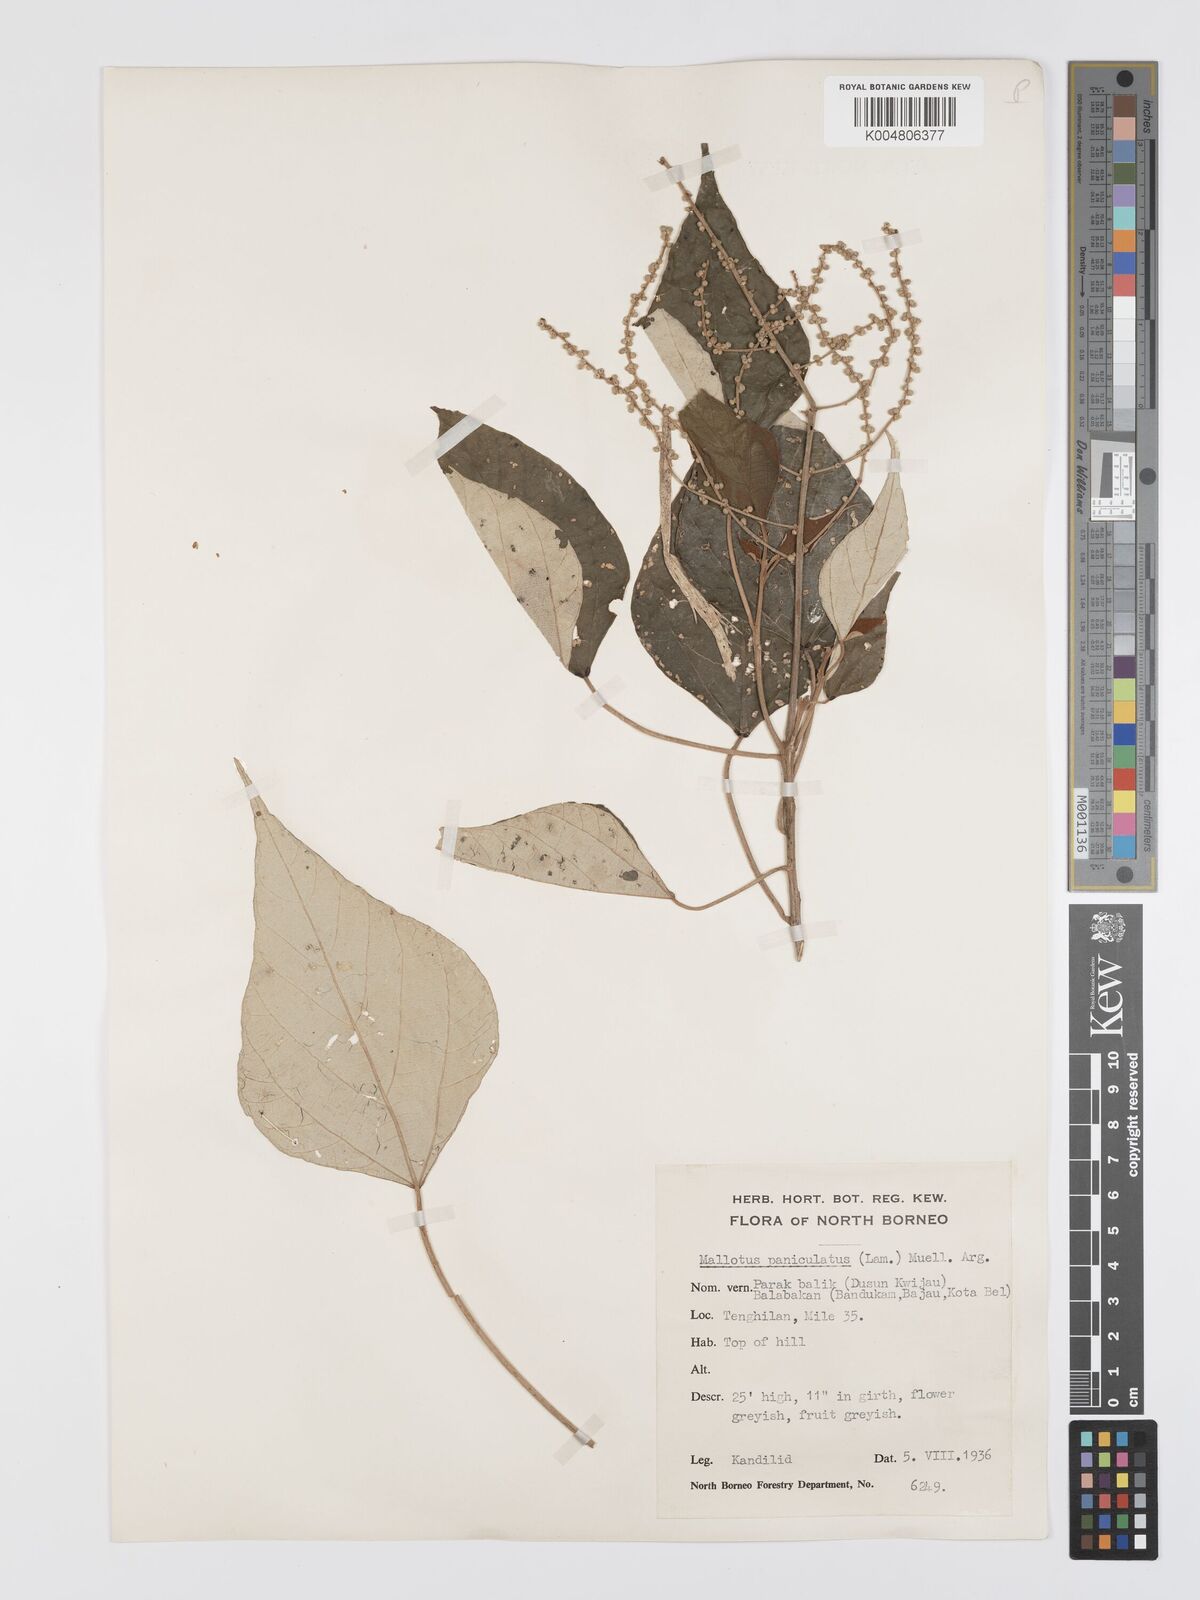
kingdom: Plantae
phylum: Tracheophyta
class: Magnoliopsida
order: Malpighiales
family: Euphorbiaceae
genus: Mallotus
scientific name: Mallotus paniculatus
